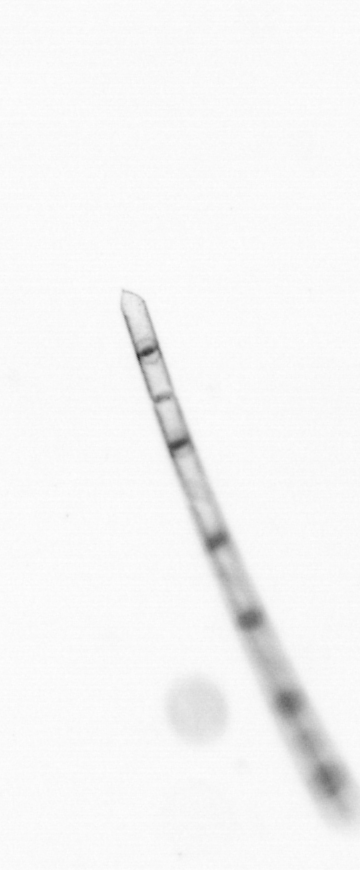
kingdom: Chromista
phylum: Ochrophyta
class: Bacillariophyceae
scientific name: Bacillariophyceae
